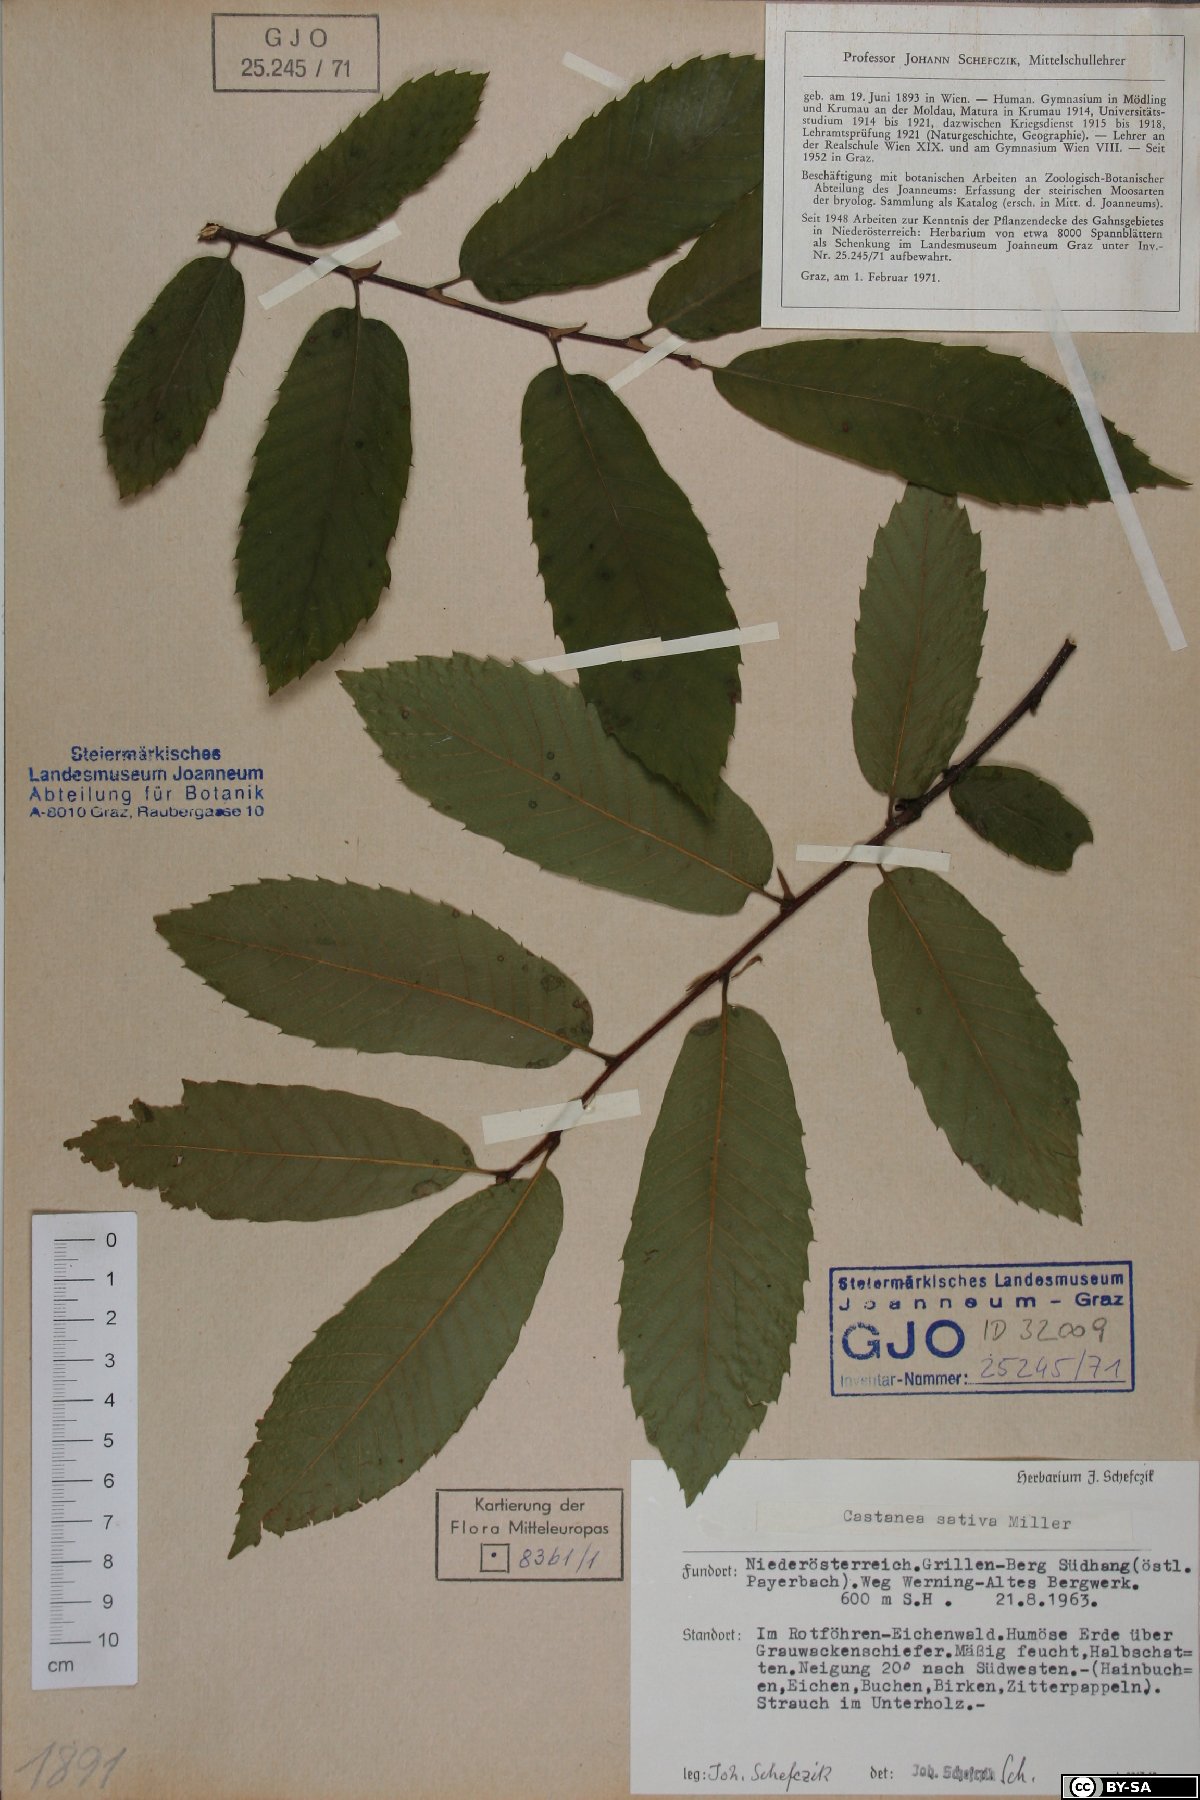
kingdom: Plantae
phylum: Tracheophyta
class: Magnoliopsida
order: Fagales
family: Fagaceae
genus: Castanea
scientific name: Castanea sativa
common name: Sweet chestnut
